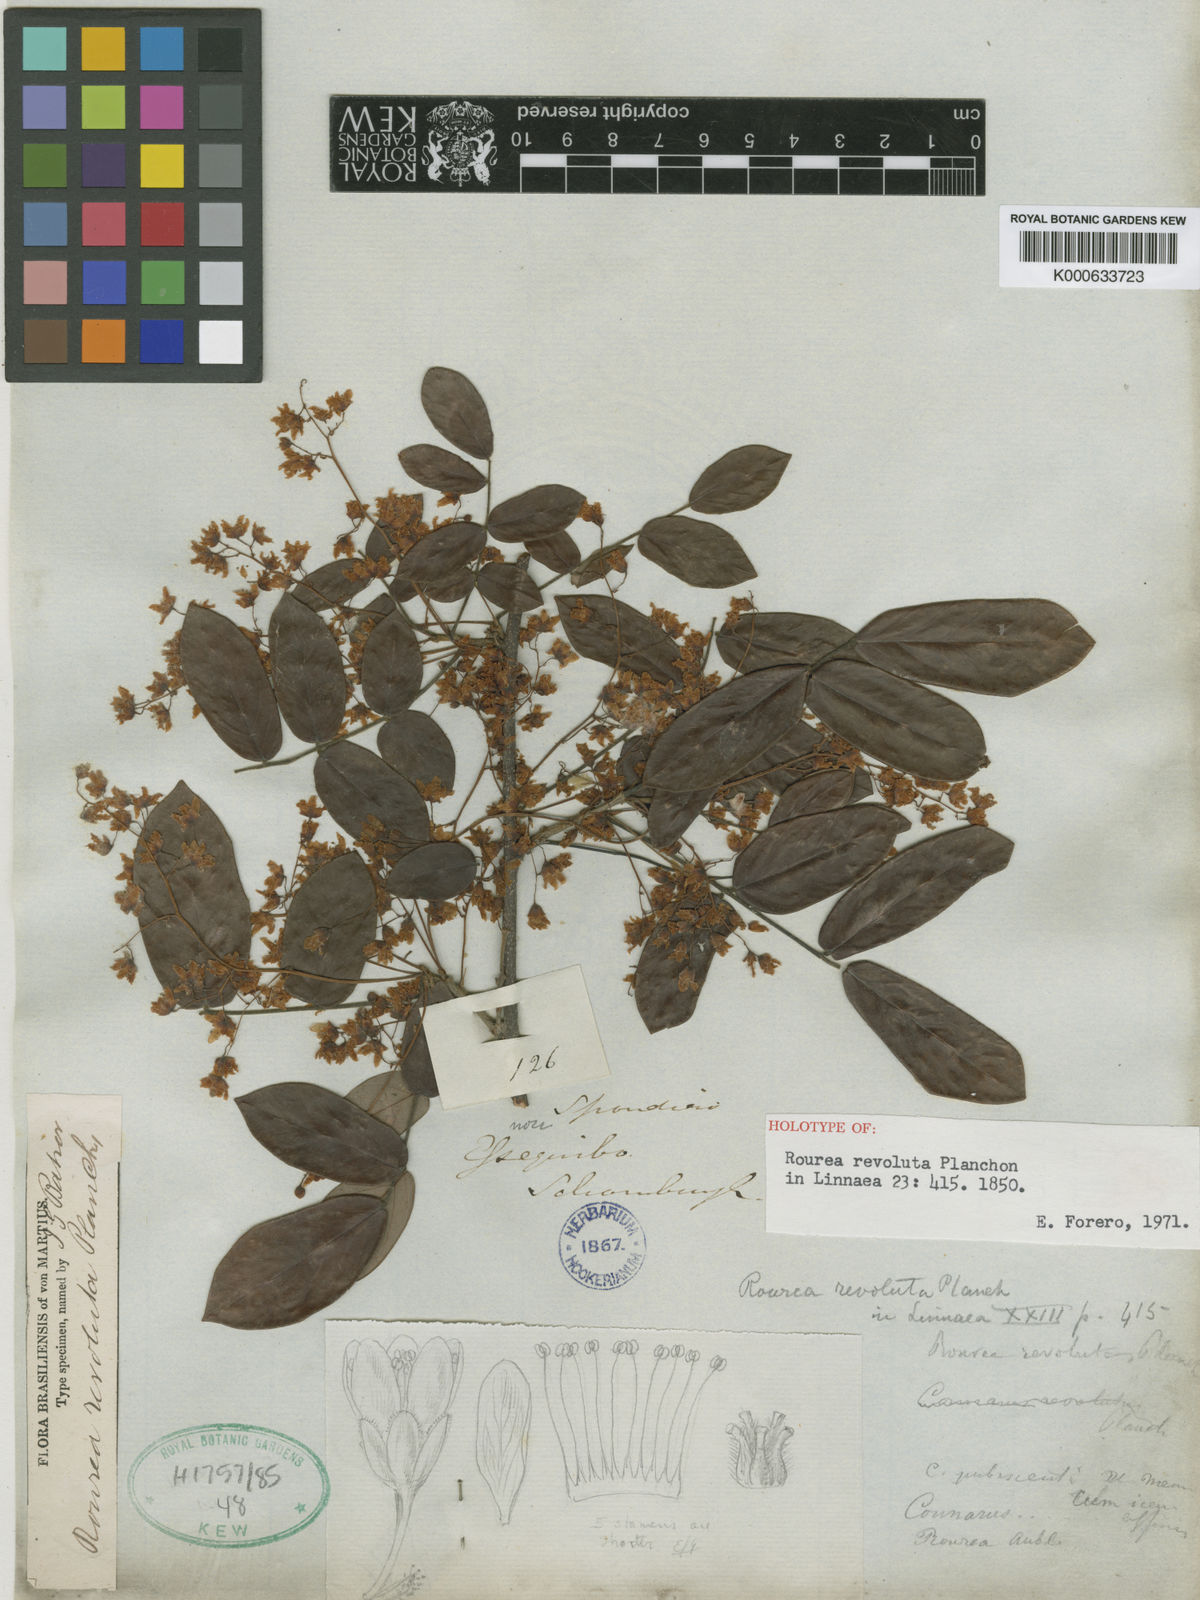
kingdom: Plantae
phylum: Tracheophyta
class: Magnoliopsida
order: Oxalidales
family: Connaraceae
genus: Rourea
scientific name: Rourea revoluta
